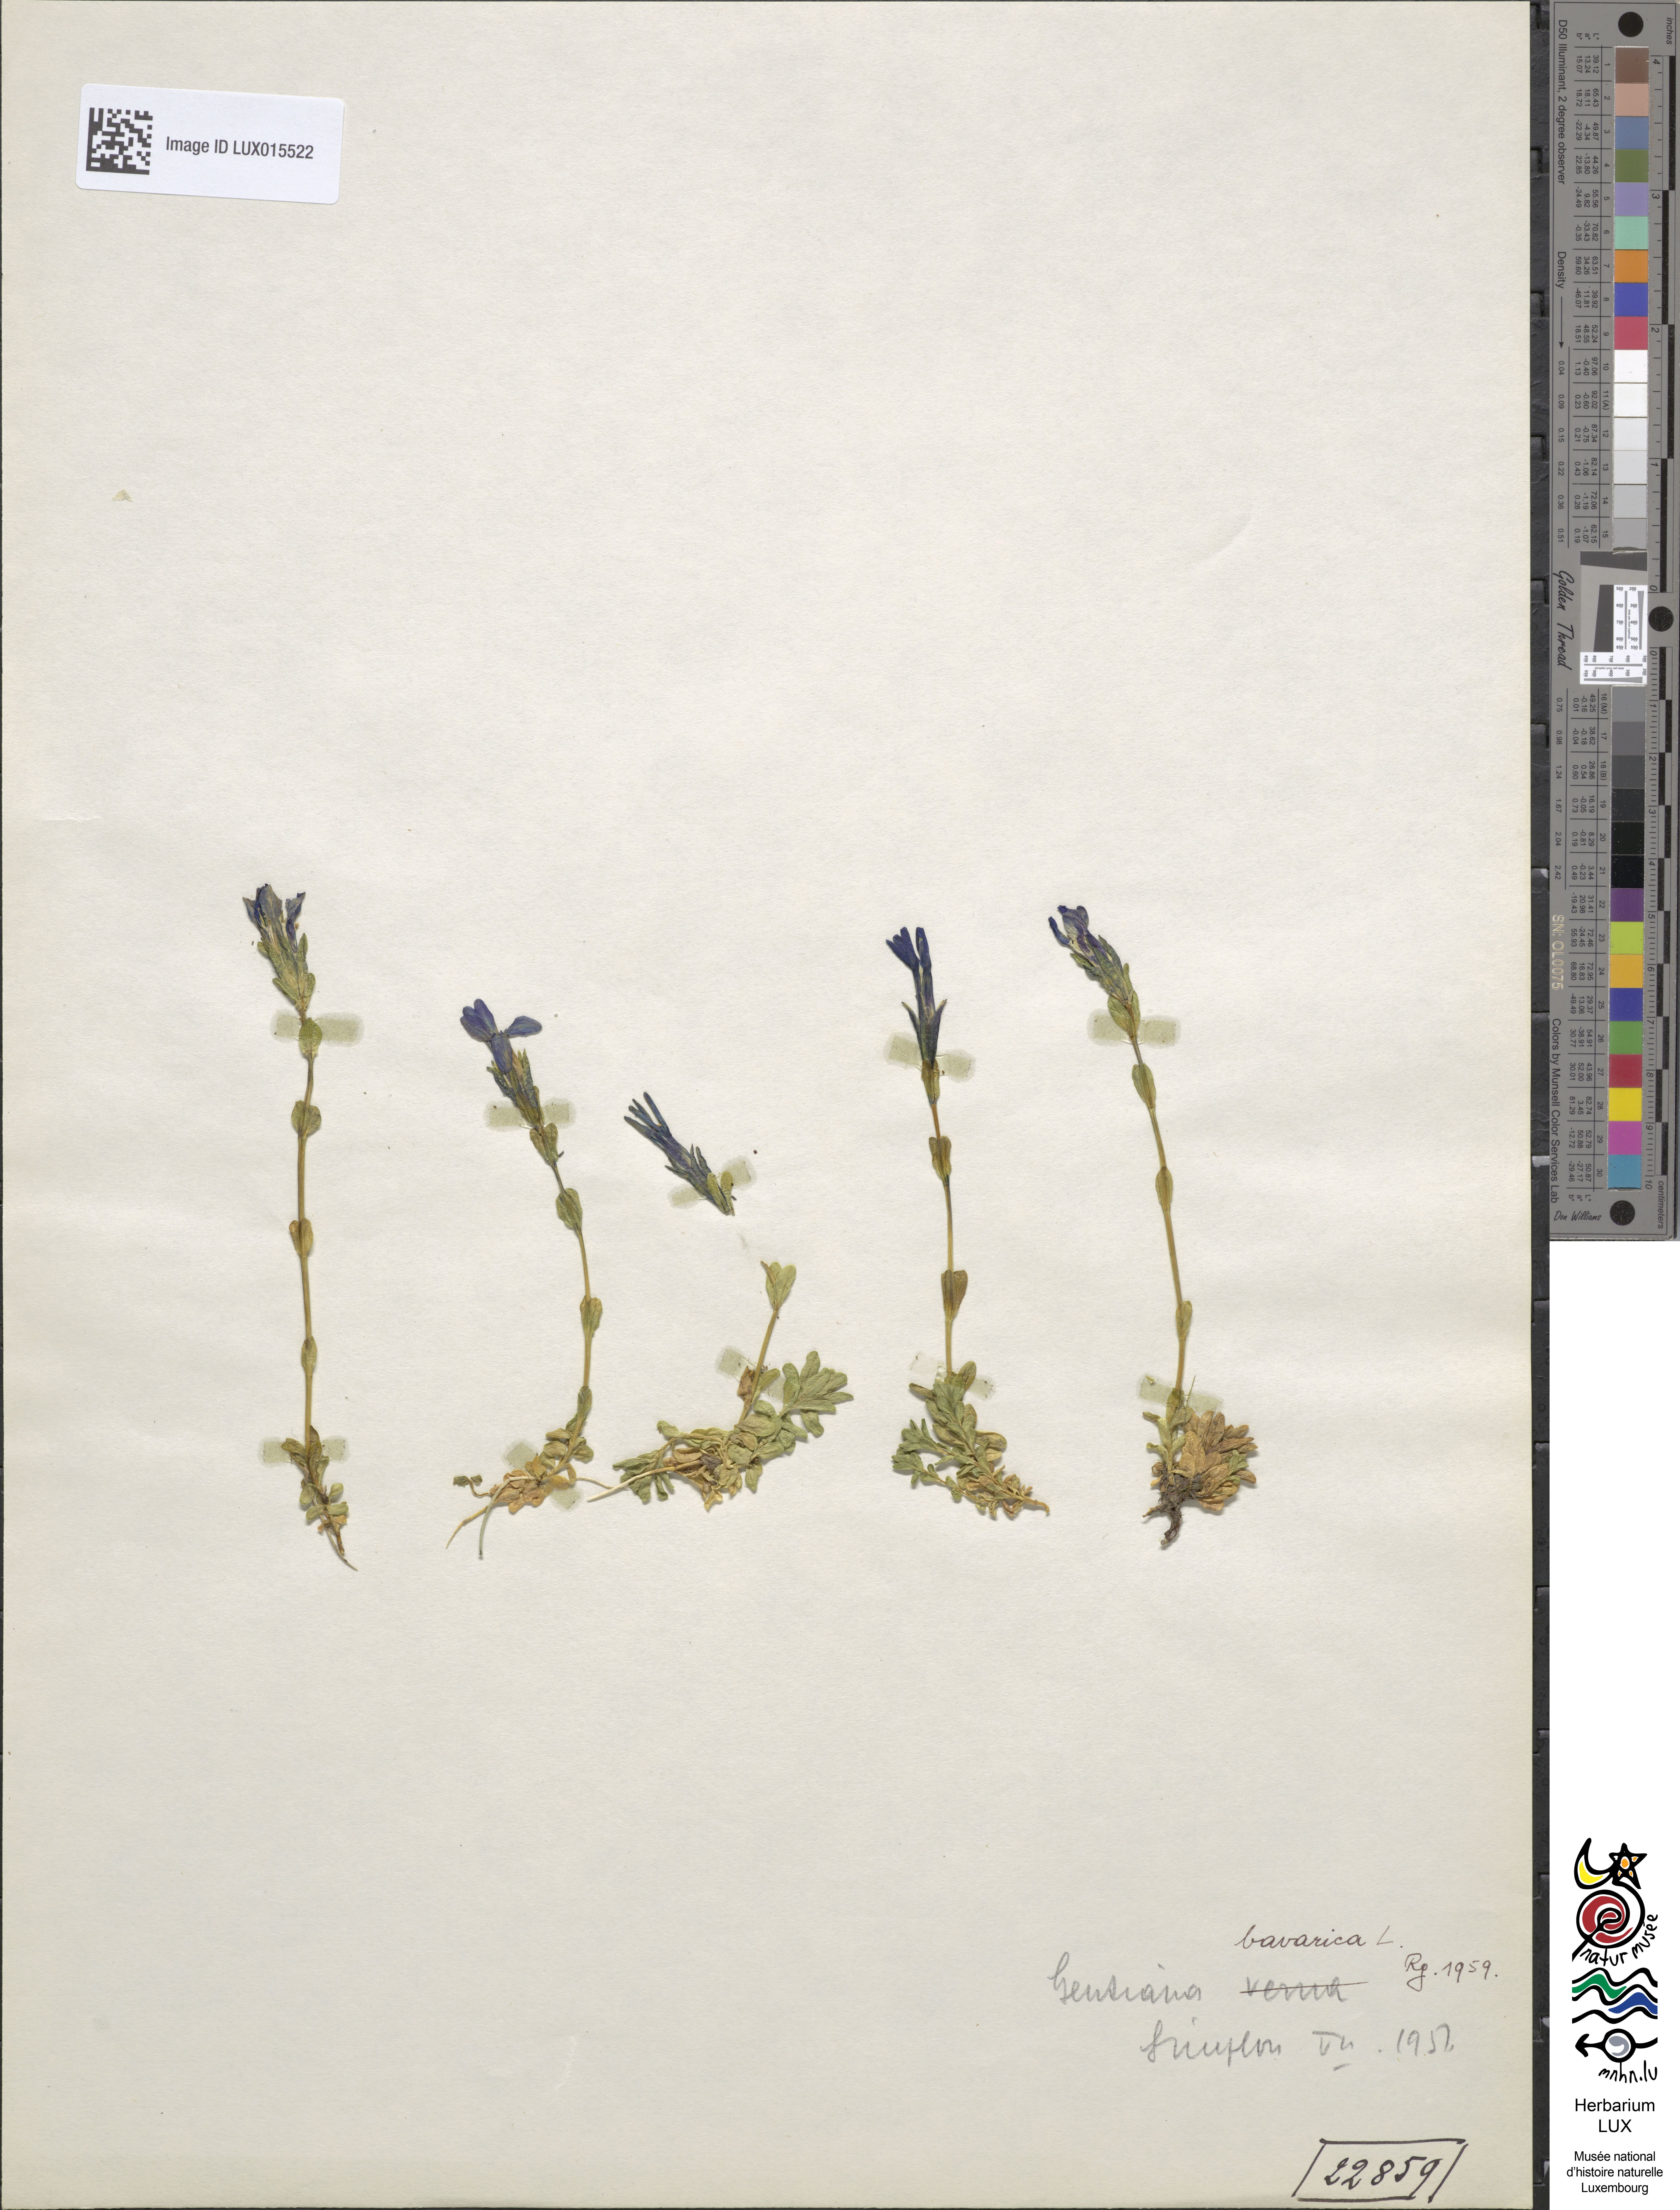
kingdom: Plantae
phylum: Tracheophyta
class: Magnoliopsida
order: Gentianales
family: Gentianaceae
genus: Gentiana
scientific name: Gentiana verna
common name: Spring gentian
